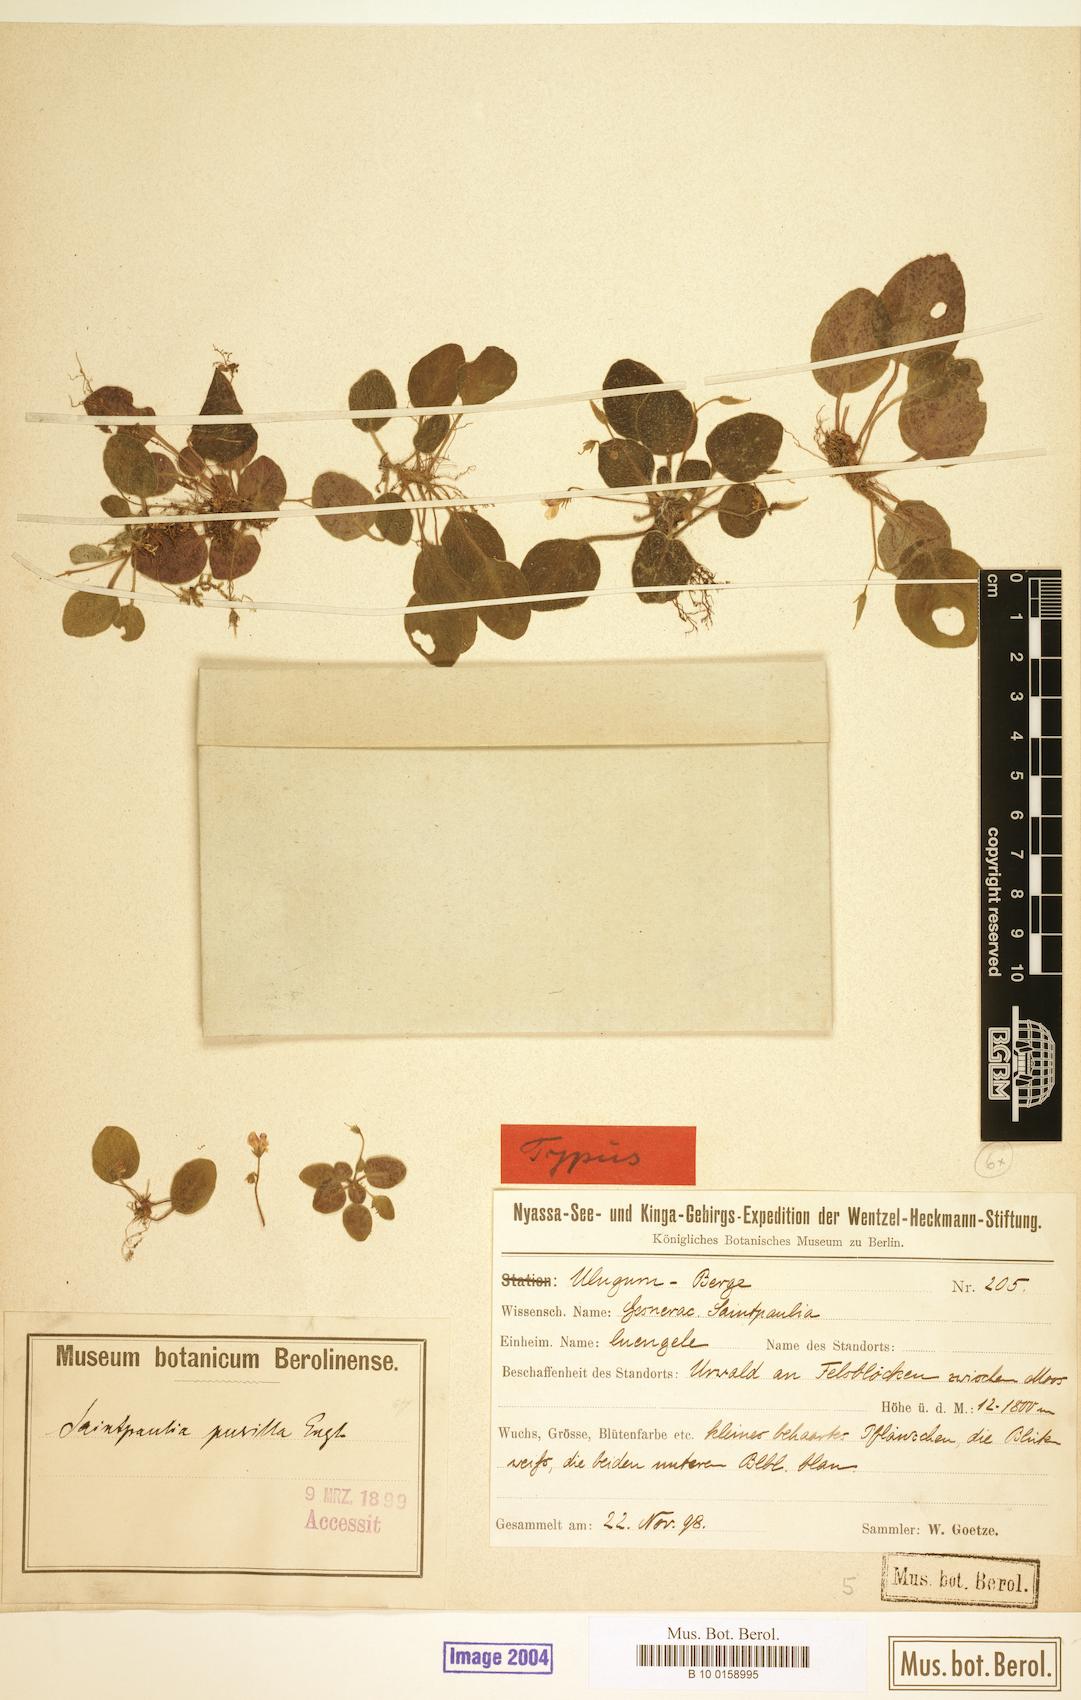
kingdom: Plantae
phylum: Tracheophyta
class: Magnoliopsida
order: Lamiales
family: Gesneriaceae
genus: Streptocarpus
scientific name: Streptocarpus afroviola
